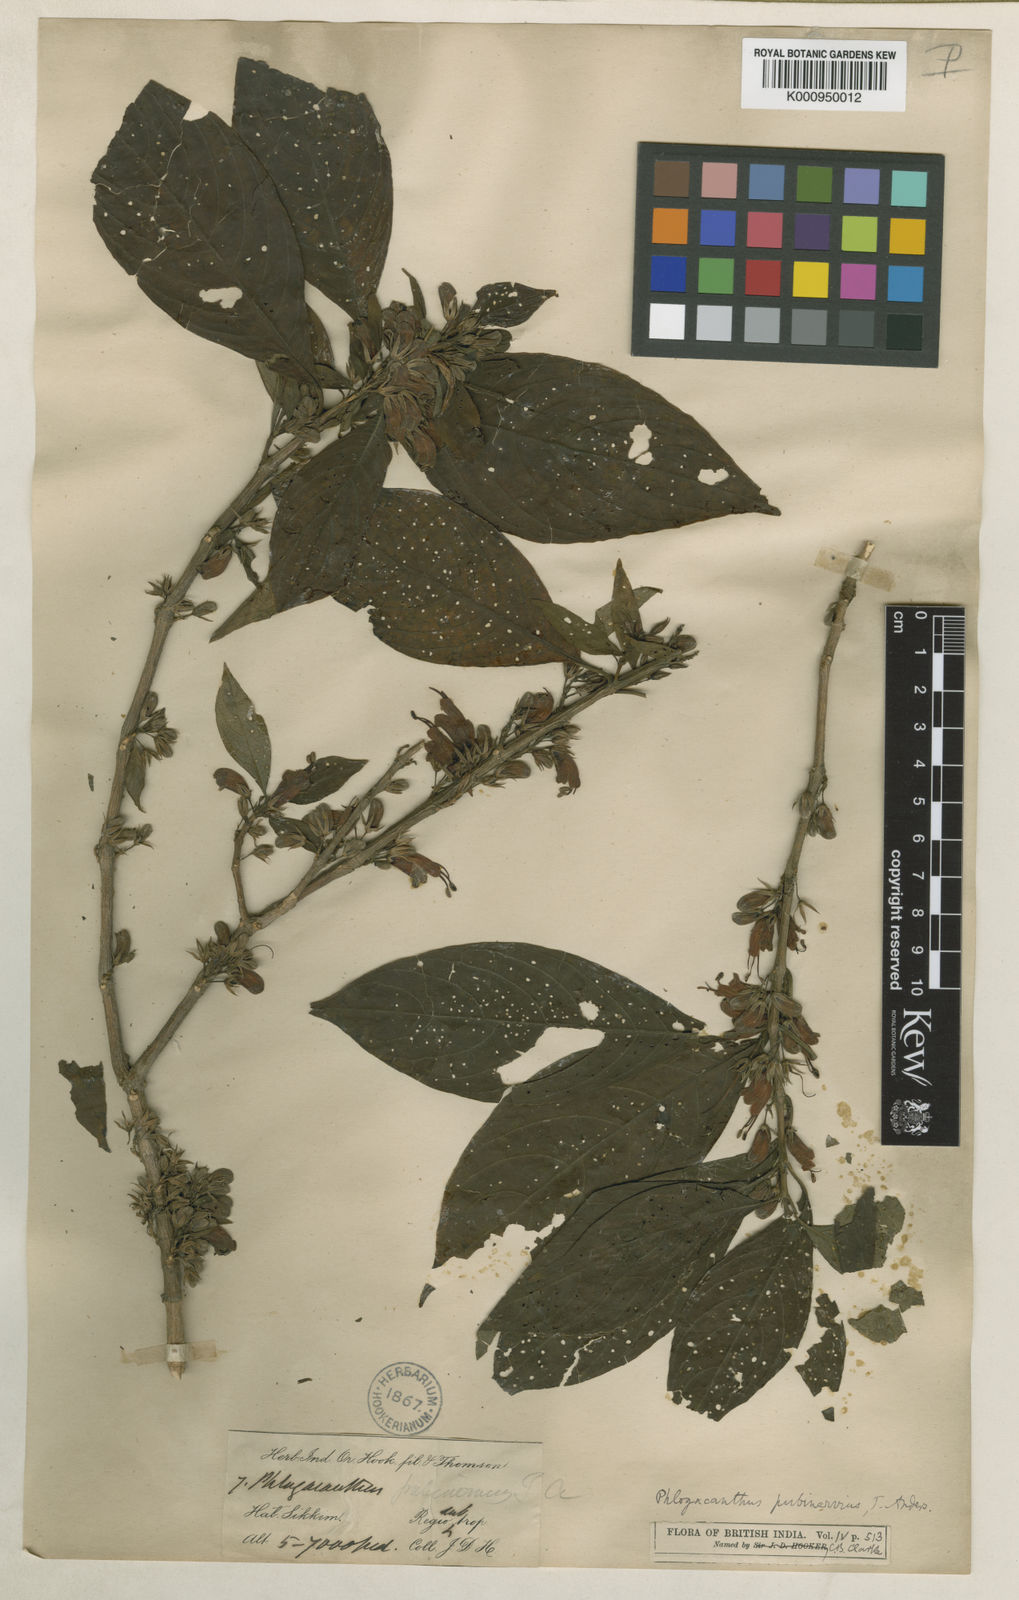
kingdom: Plantae
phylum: Tracheophyta
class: Magnoliopsida
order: Lamiales
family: Acanthaceae
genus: Phlogacanthus
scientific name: Phlogacanthus pubinervius
